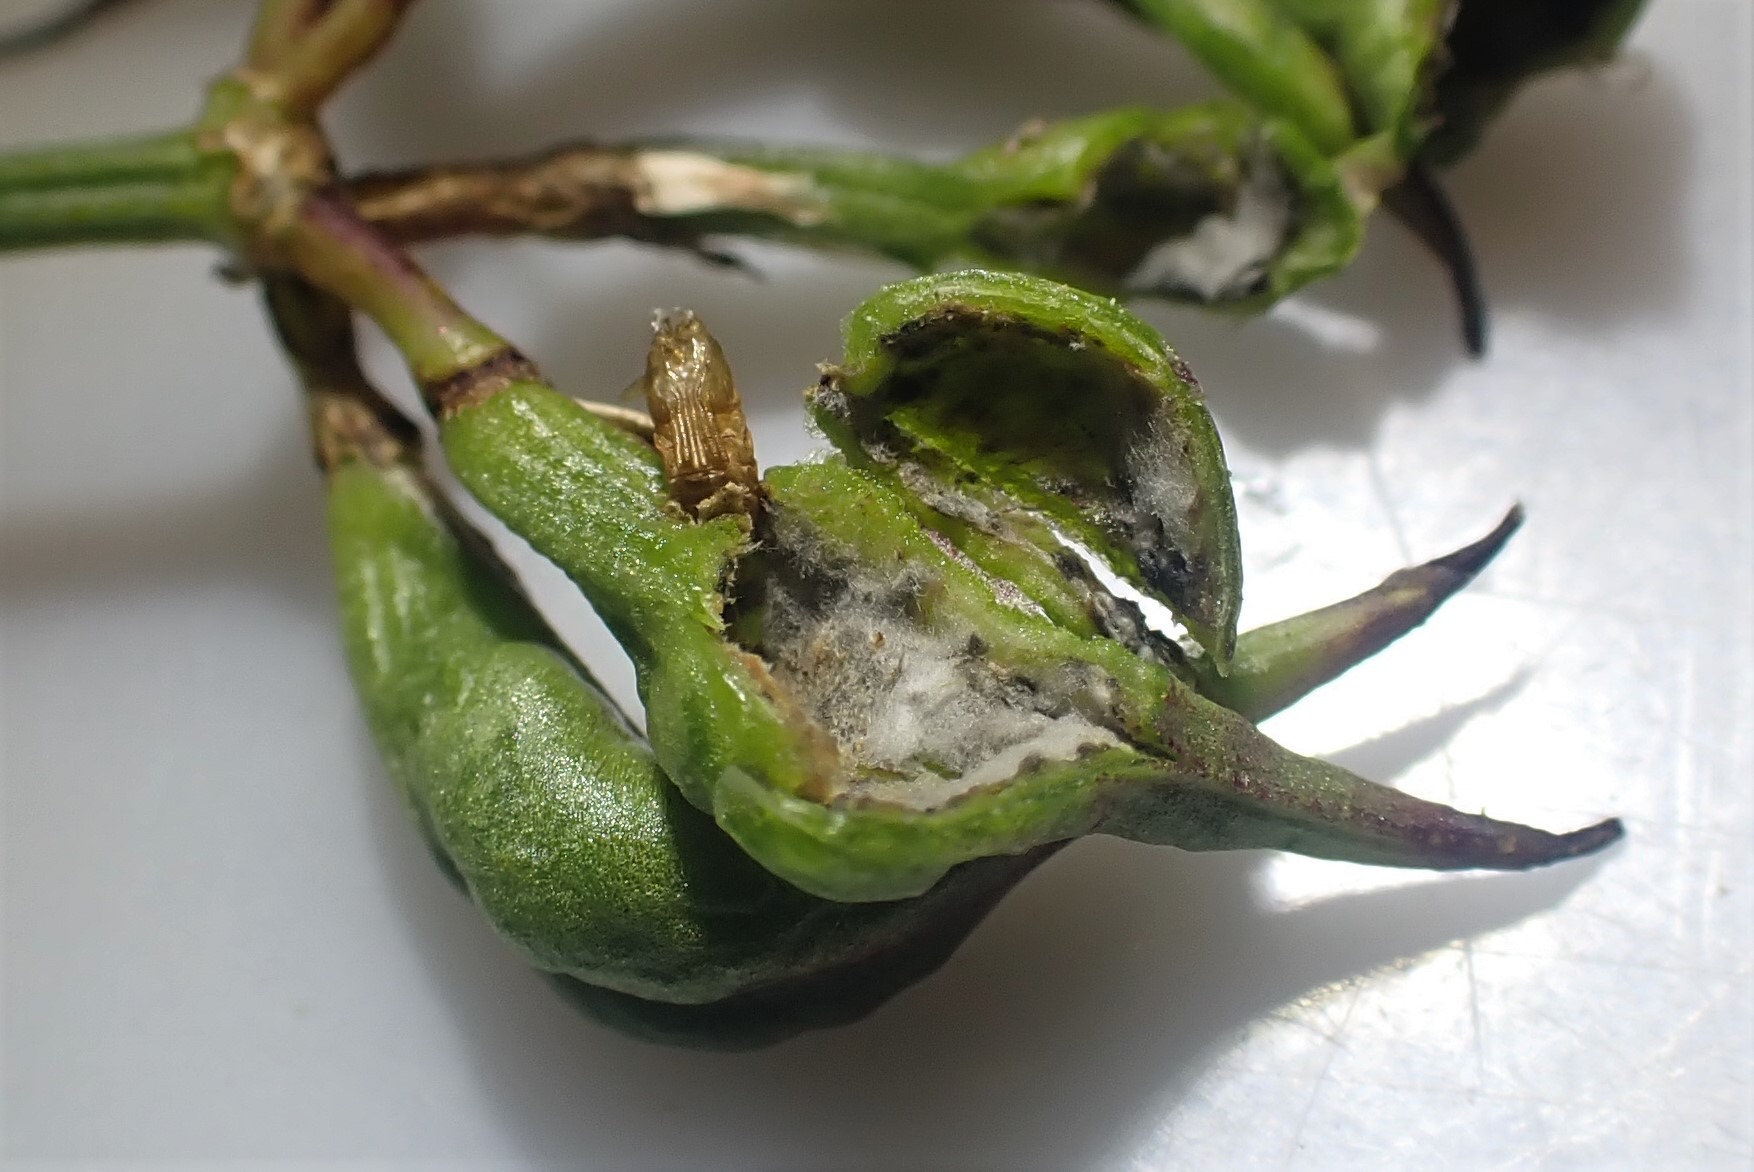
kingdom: Animalia
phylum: Arthropoda
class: Insecta
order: Diptera
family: Cecidomyiidae
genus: Asphondylia
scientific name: Asphondylia baudysi
